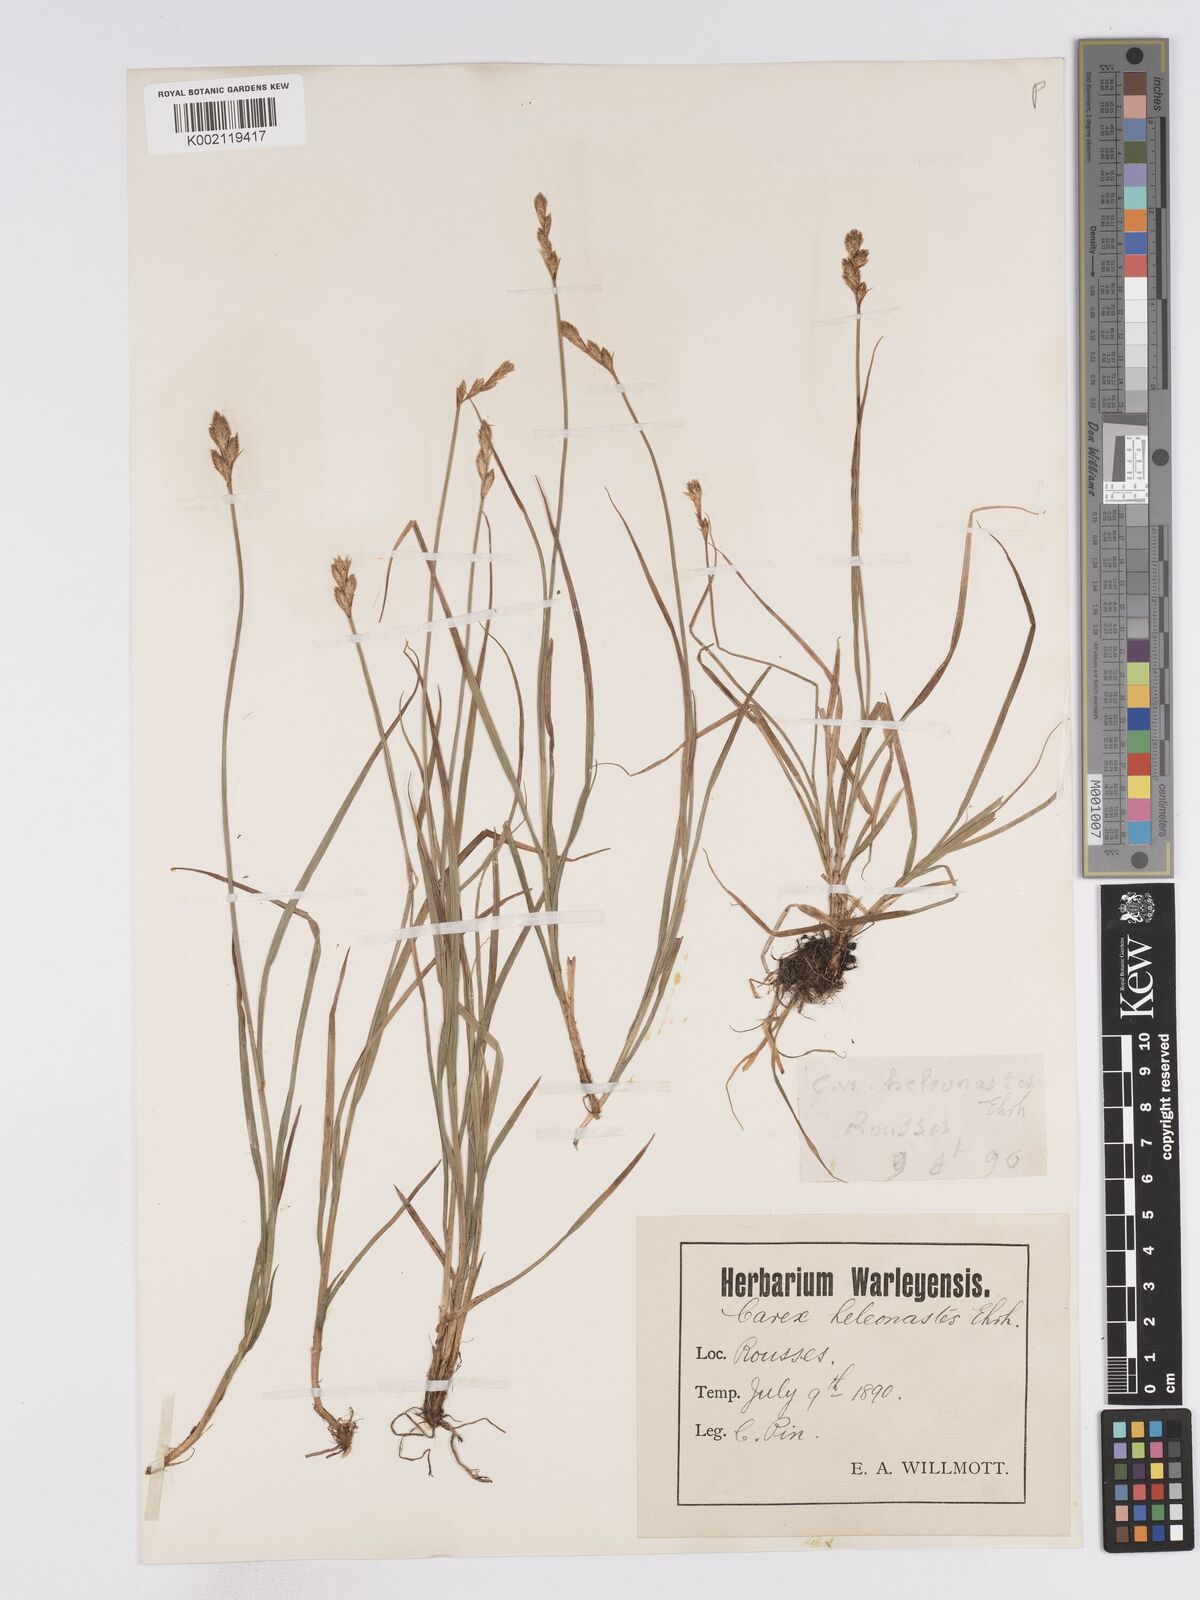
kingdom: Plantae
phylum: Tracheophyta
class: Liliopsida
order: Poales
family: Cyperaceae
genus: Carex
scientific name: Carex heleonastes
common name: Hudson bay sedge
